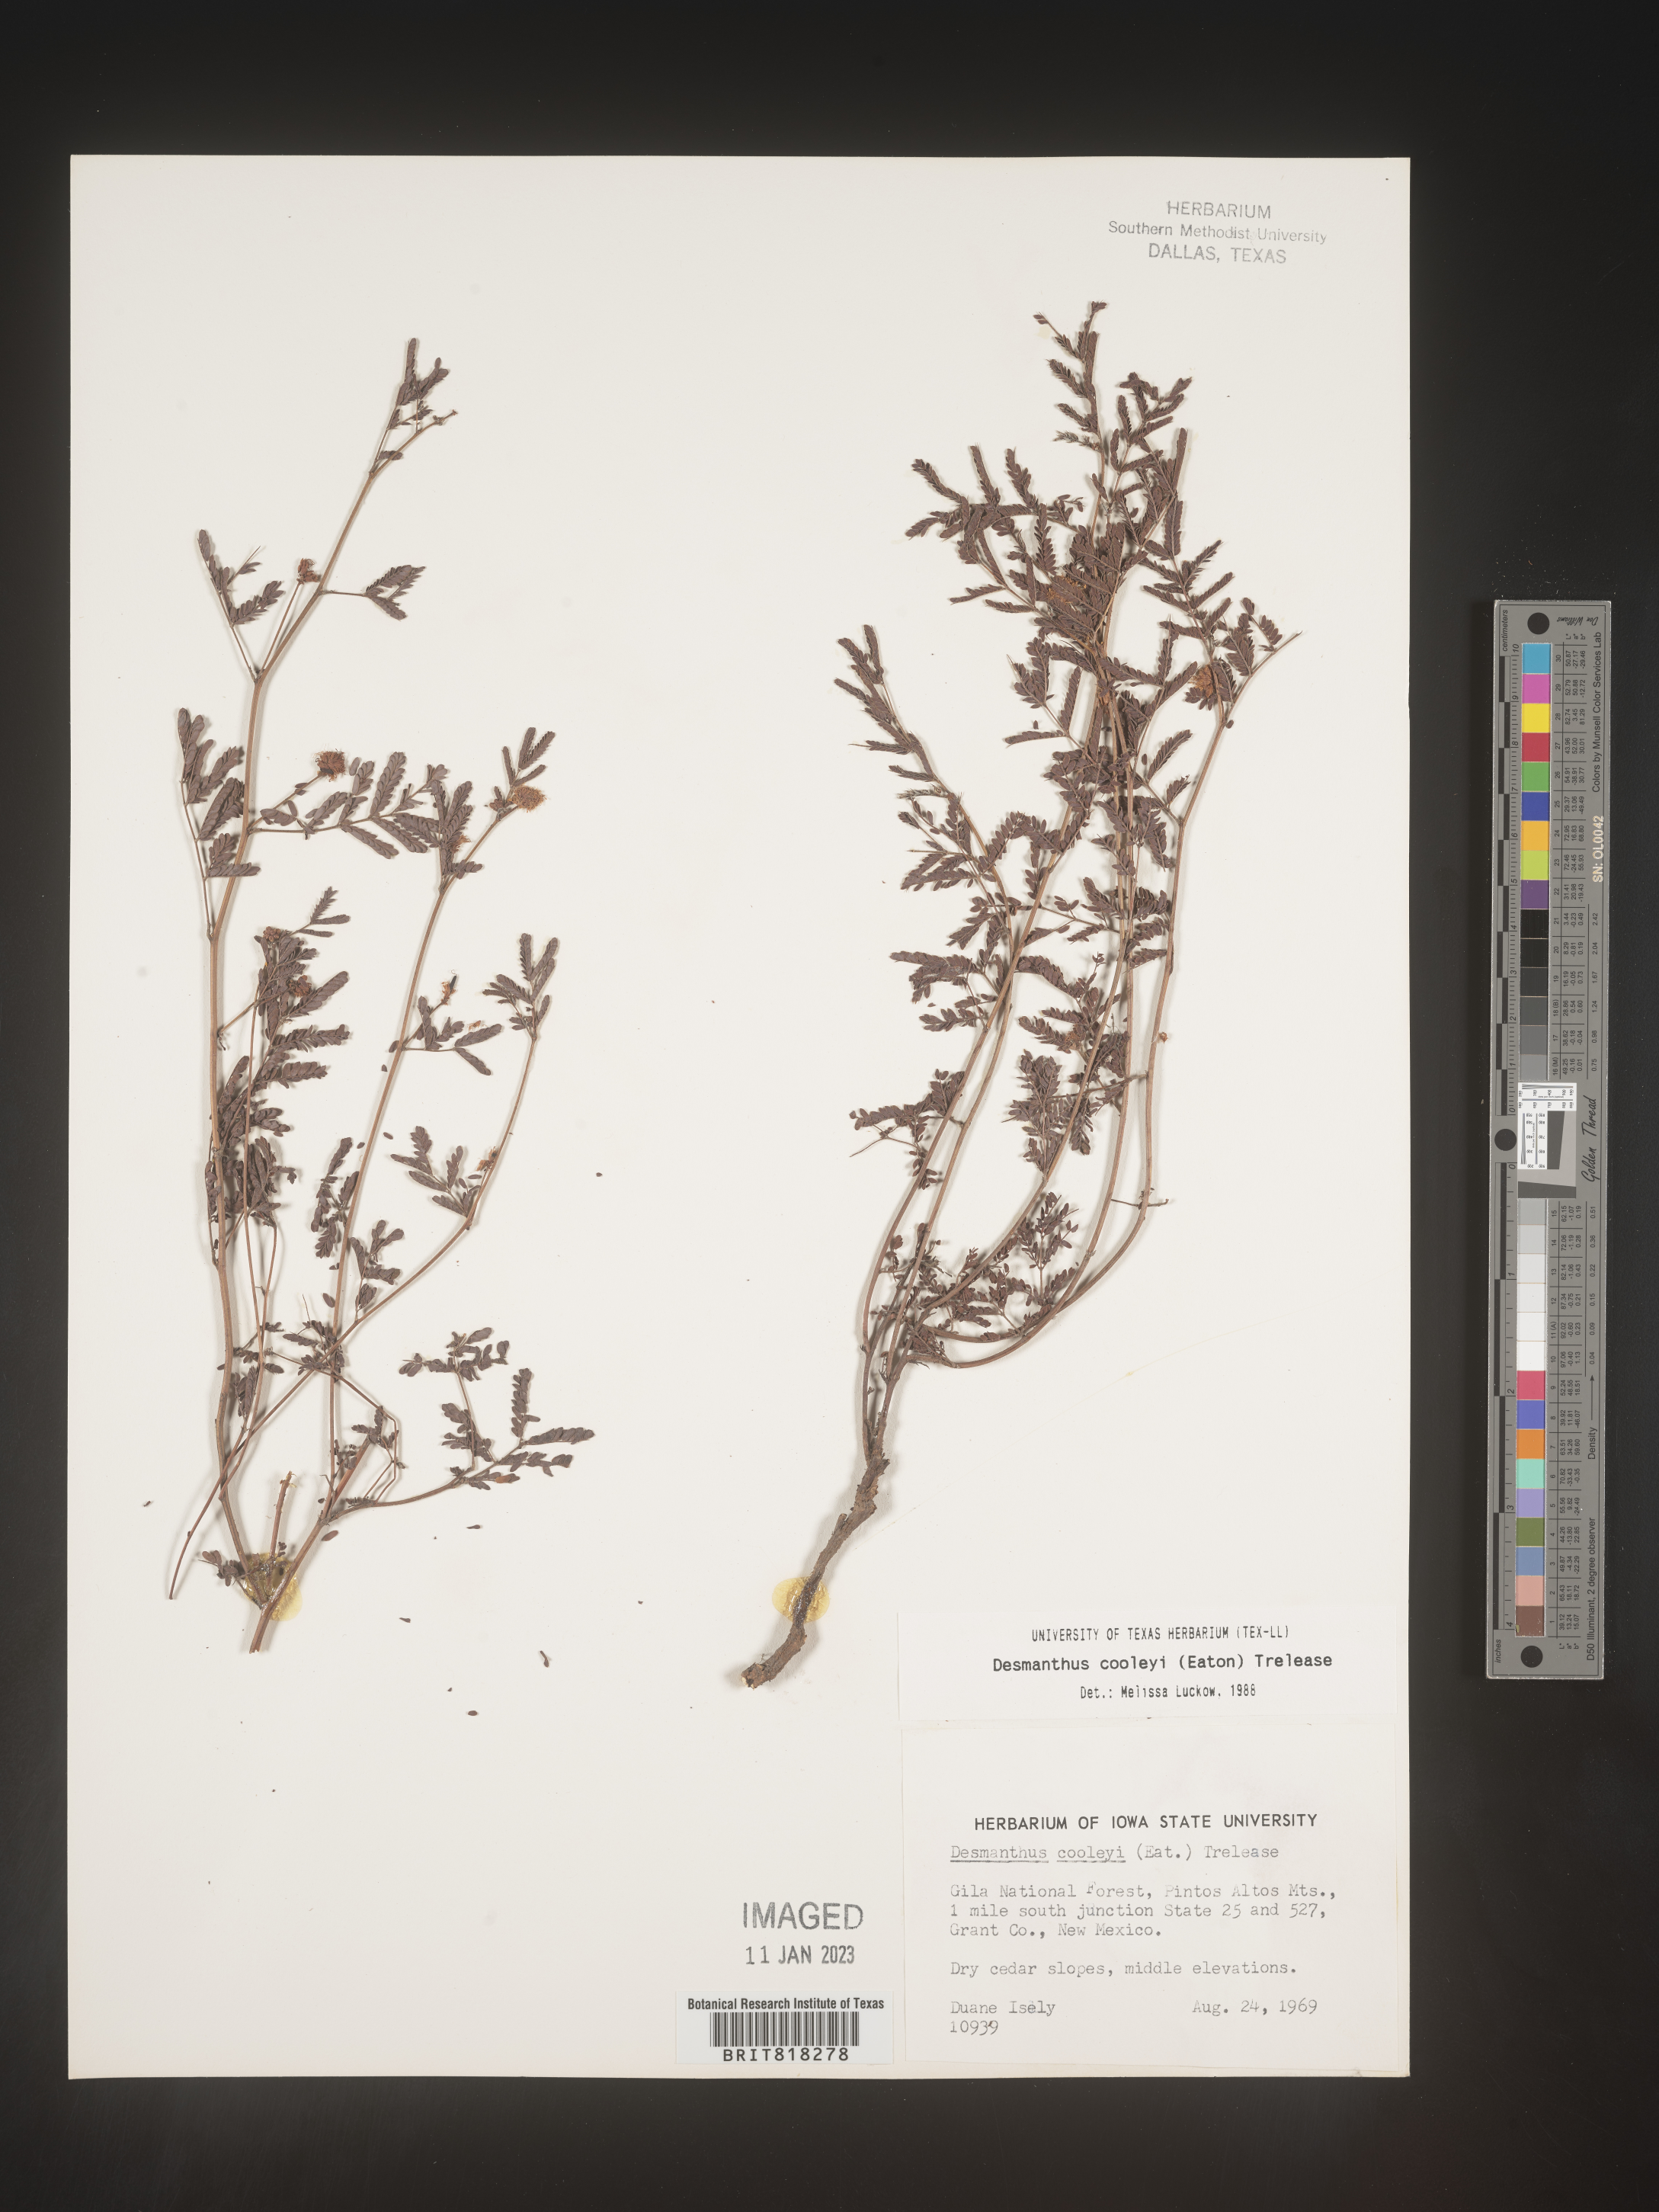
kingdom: Plantae
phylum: Tracheophyta
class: Magnoliopsida
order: Fabales
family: Fabaceae
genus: Desmanthus
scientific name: Desmanthus cooleyi
